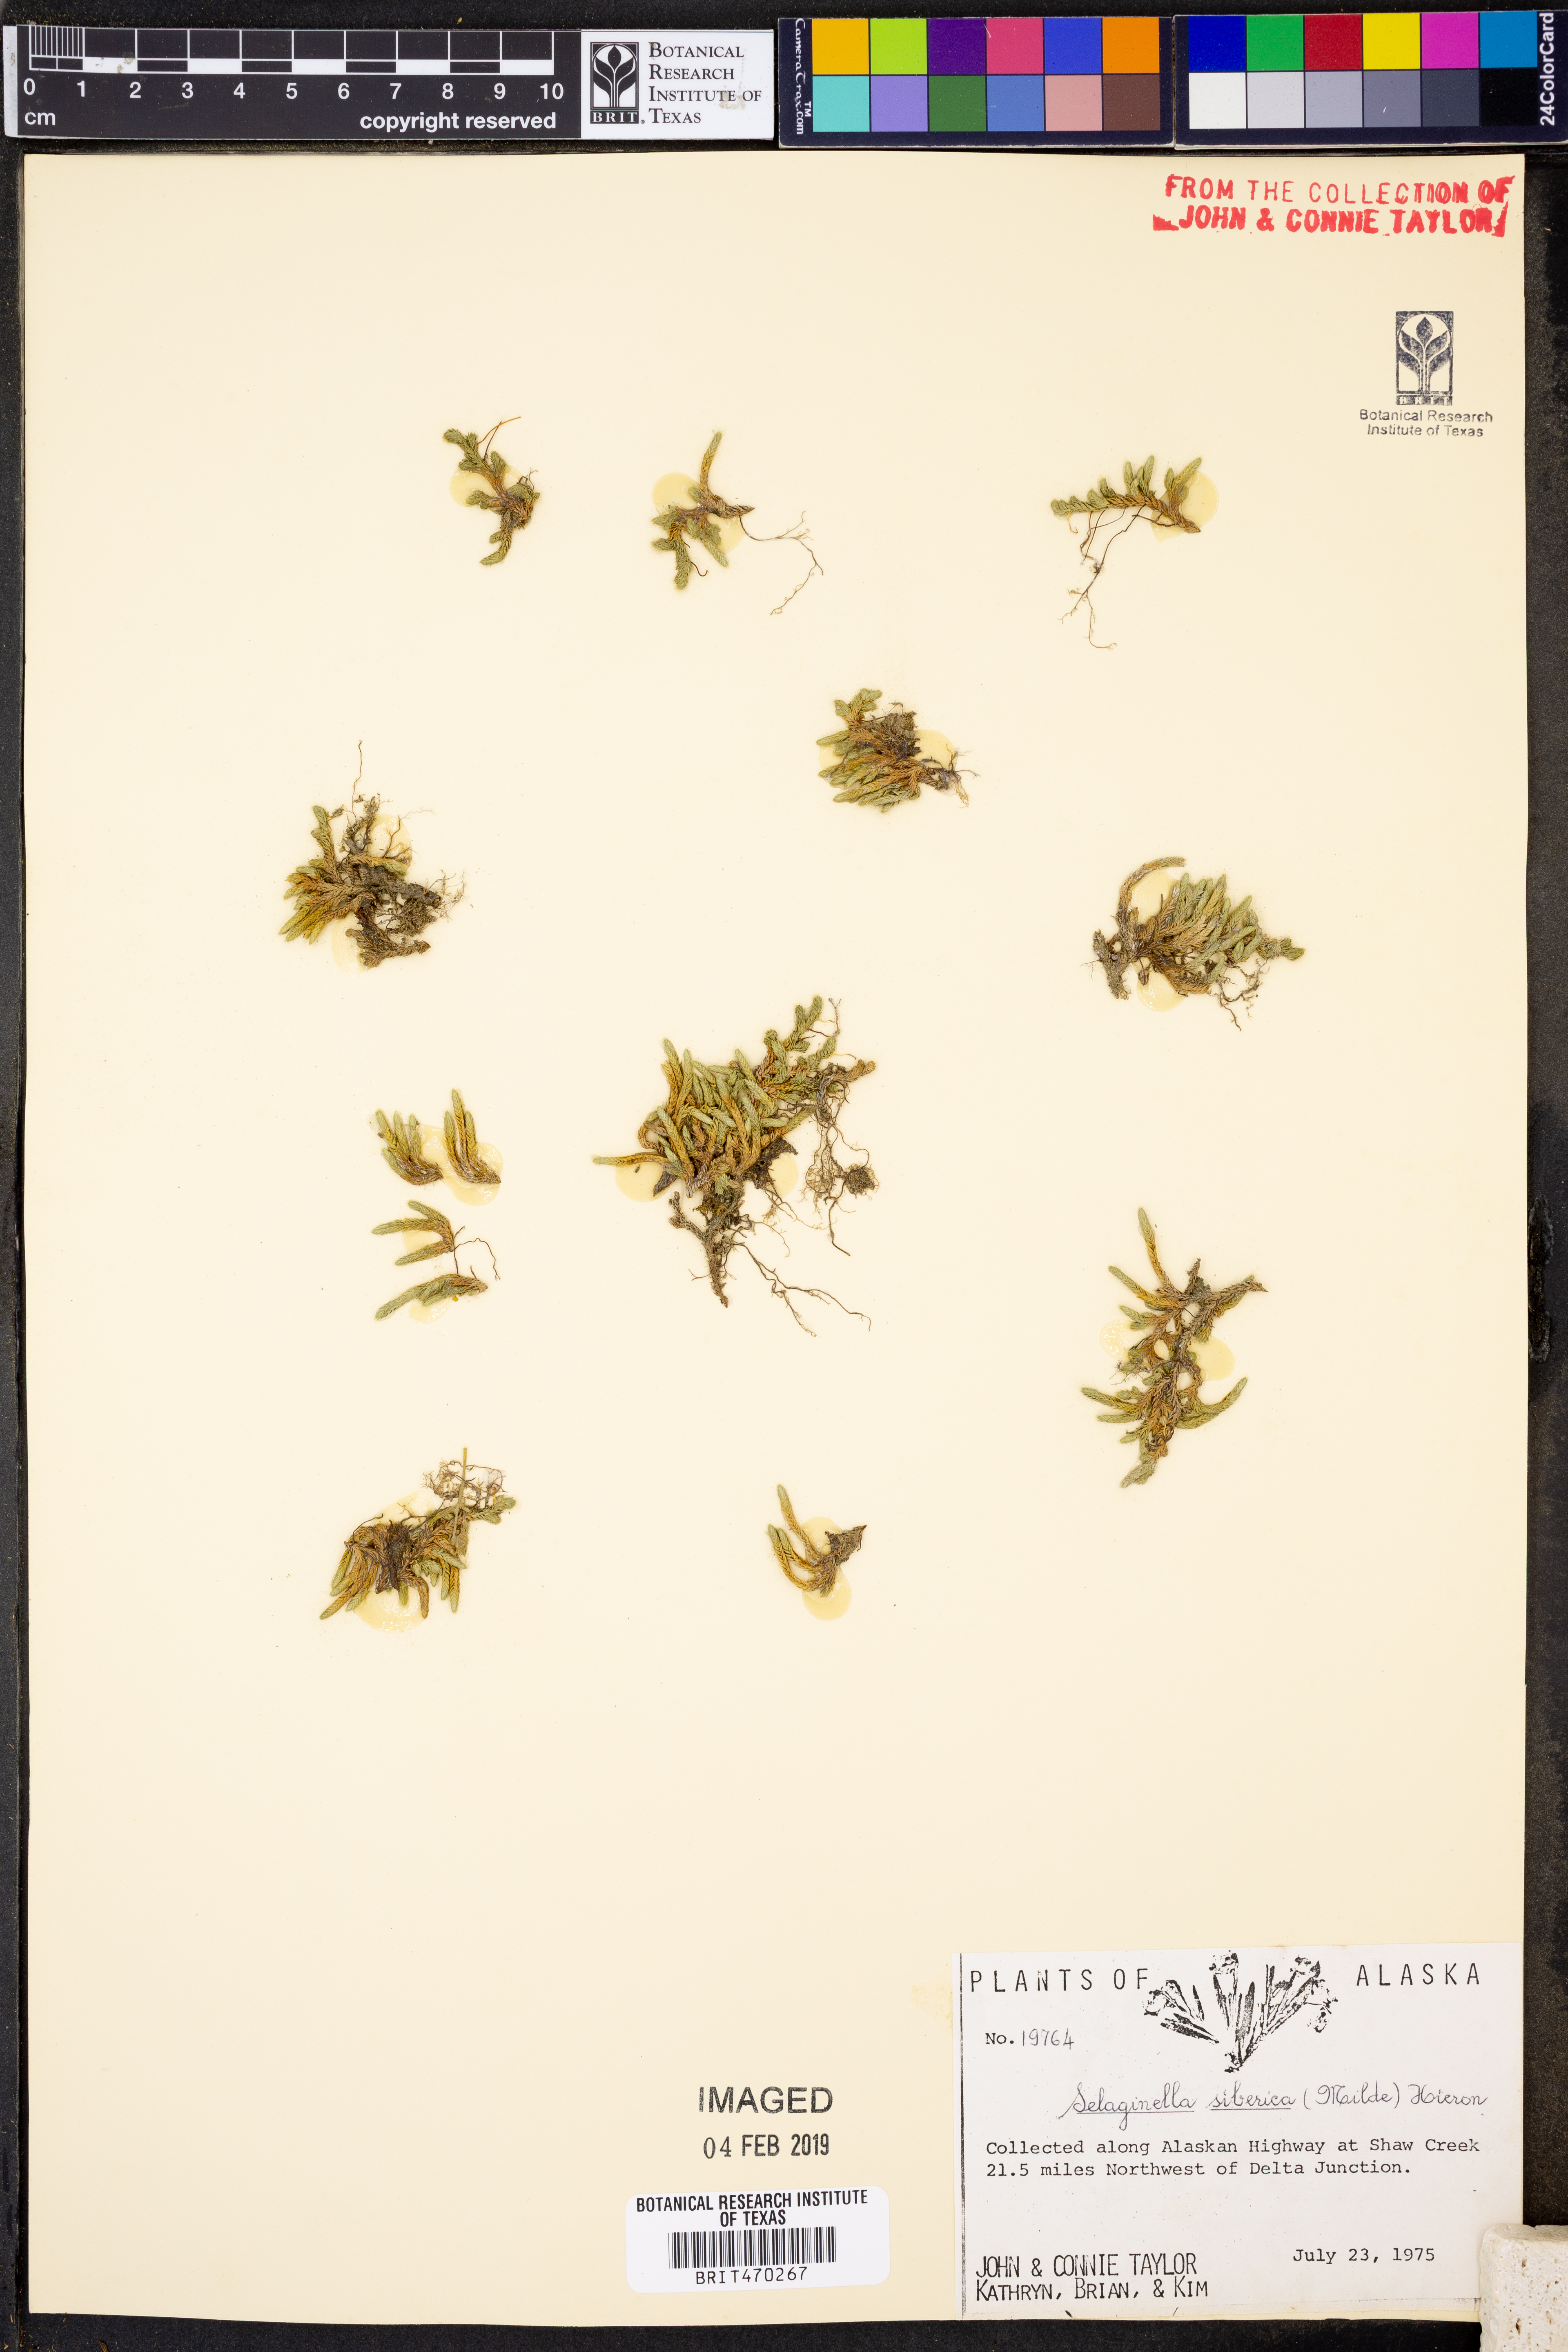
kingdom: Plantae
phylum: Tracheophyta
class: Lycopodiopsida
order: Selaginellales
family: Selaginellaceae
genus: Selaginella
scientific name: Selaginella sibirica
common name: Siberian spikemoss
